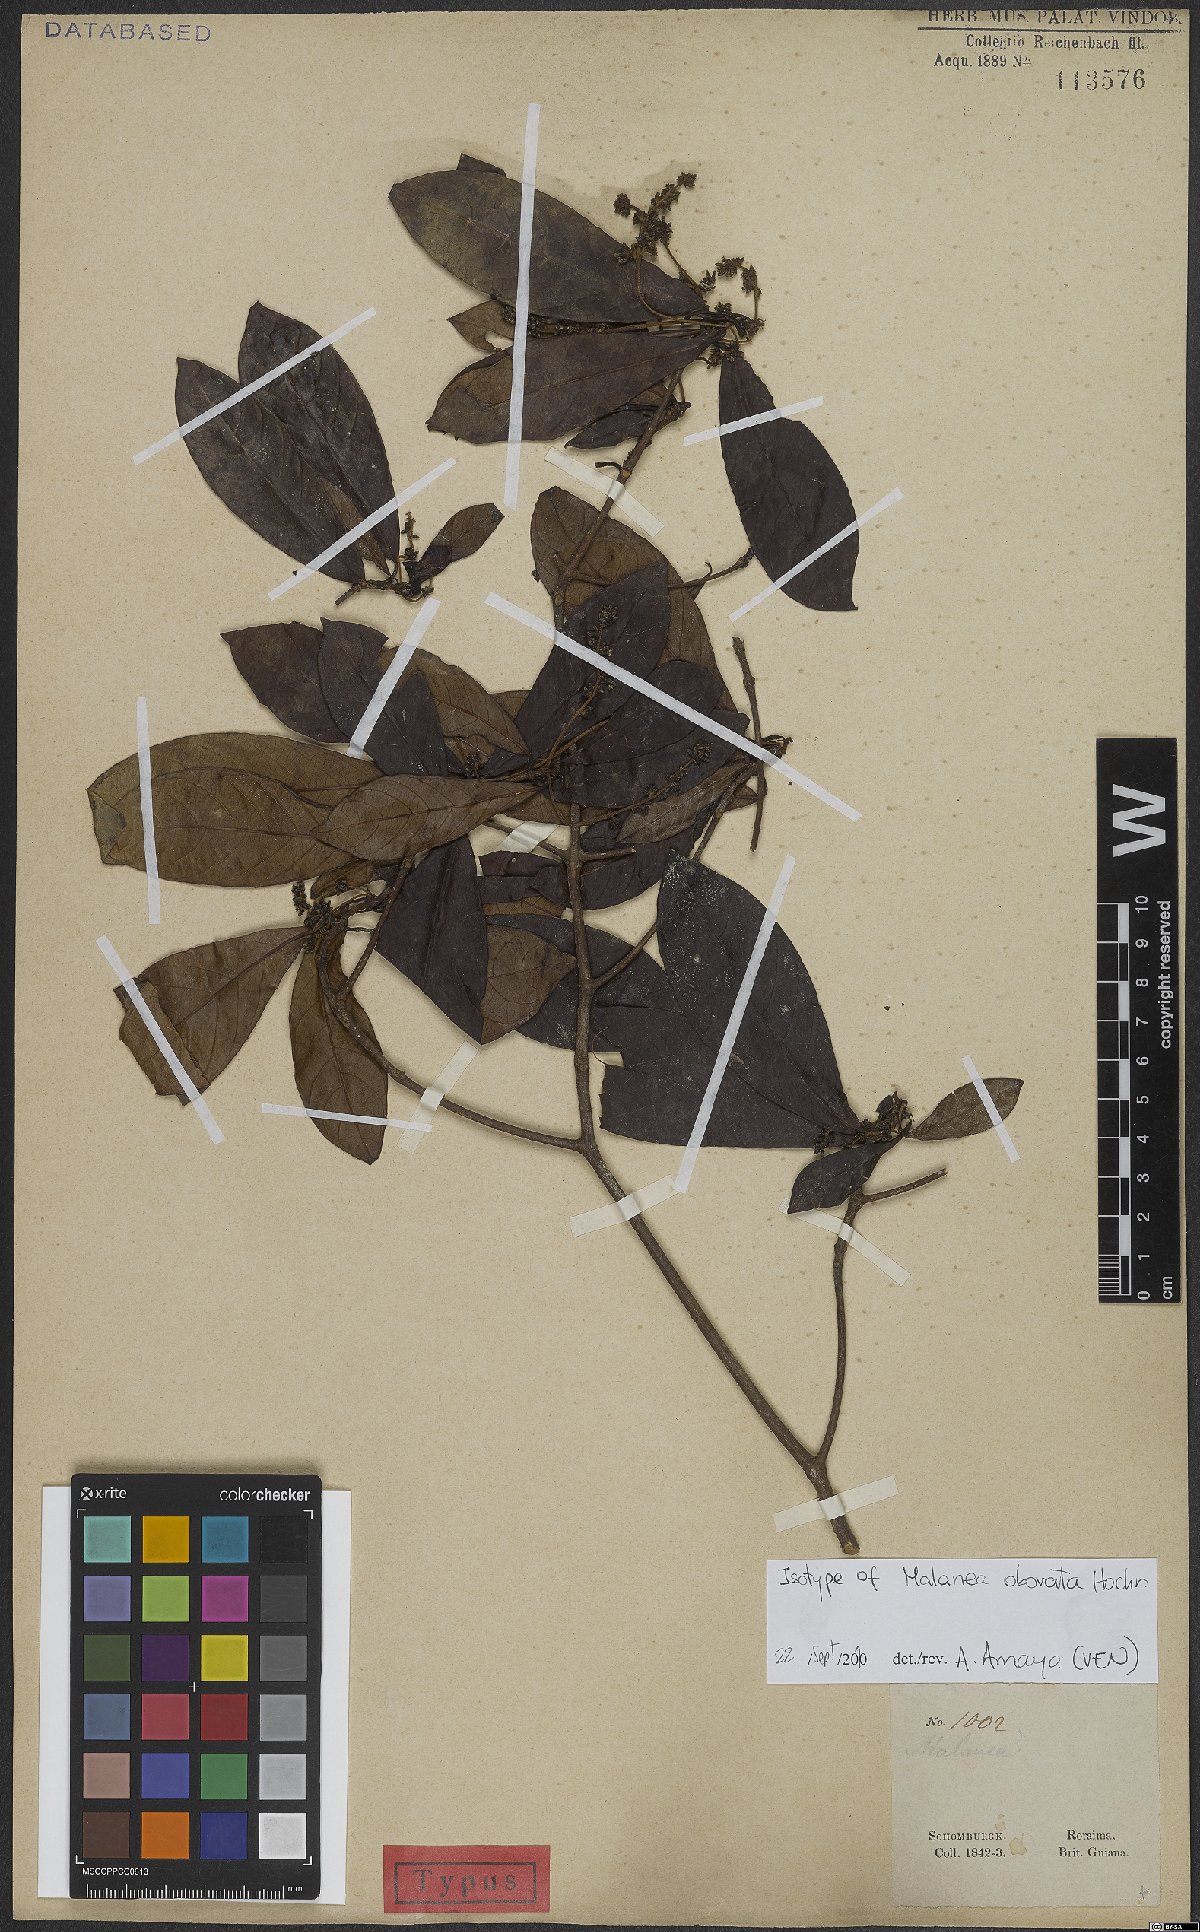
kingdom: Plantae
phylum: Tracheophyta
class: Magnoliopsida
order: Gentianales
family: Rubiaceae
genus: Malanea
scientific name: Malanea obovata
